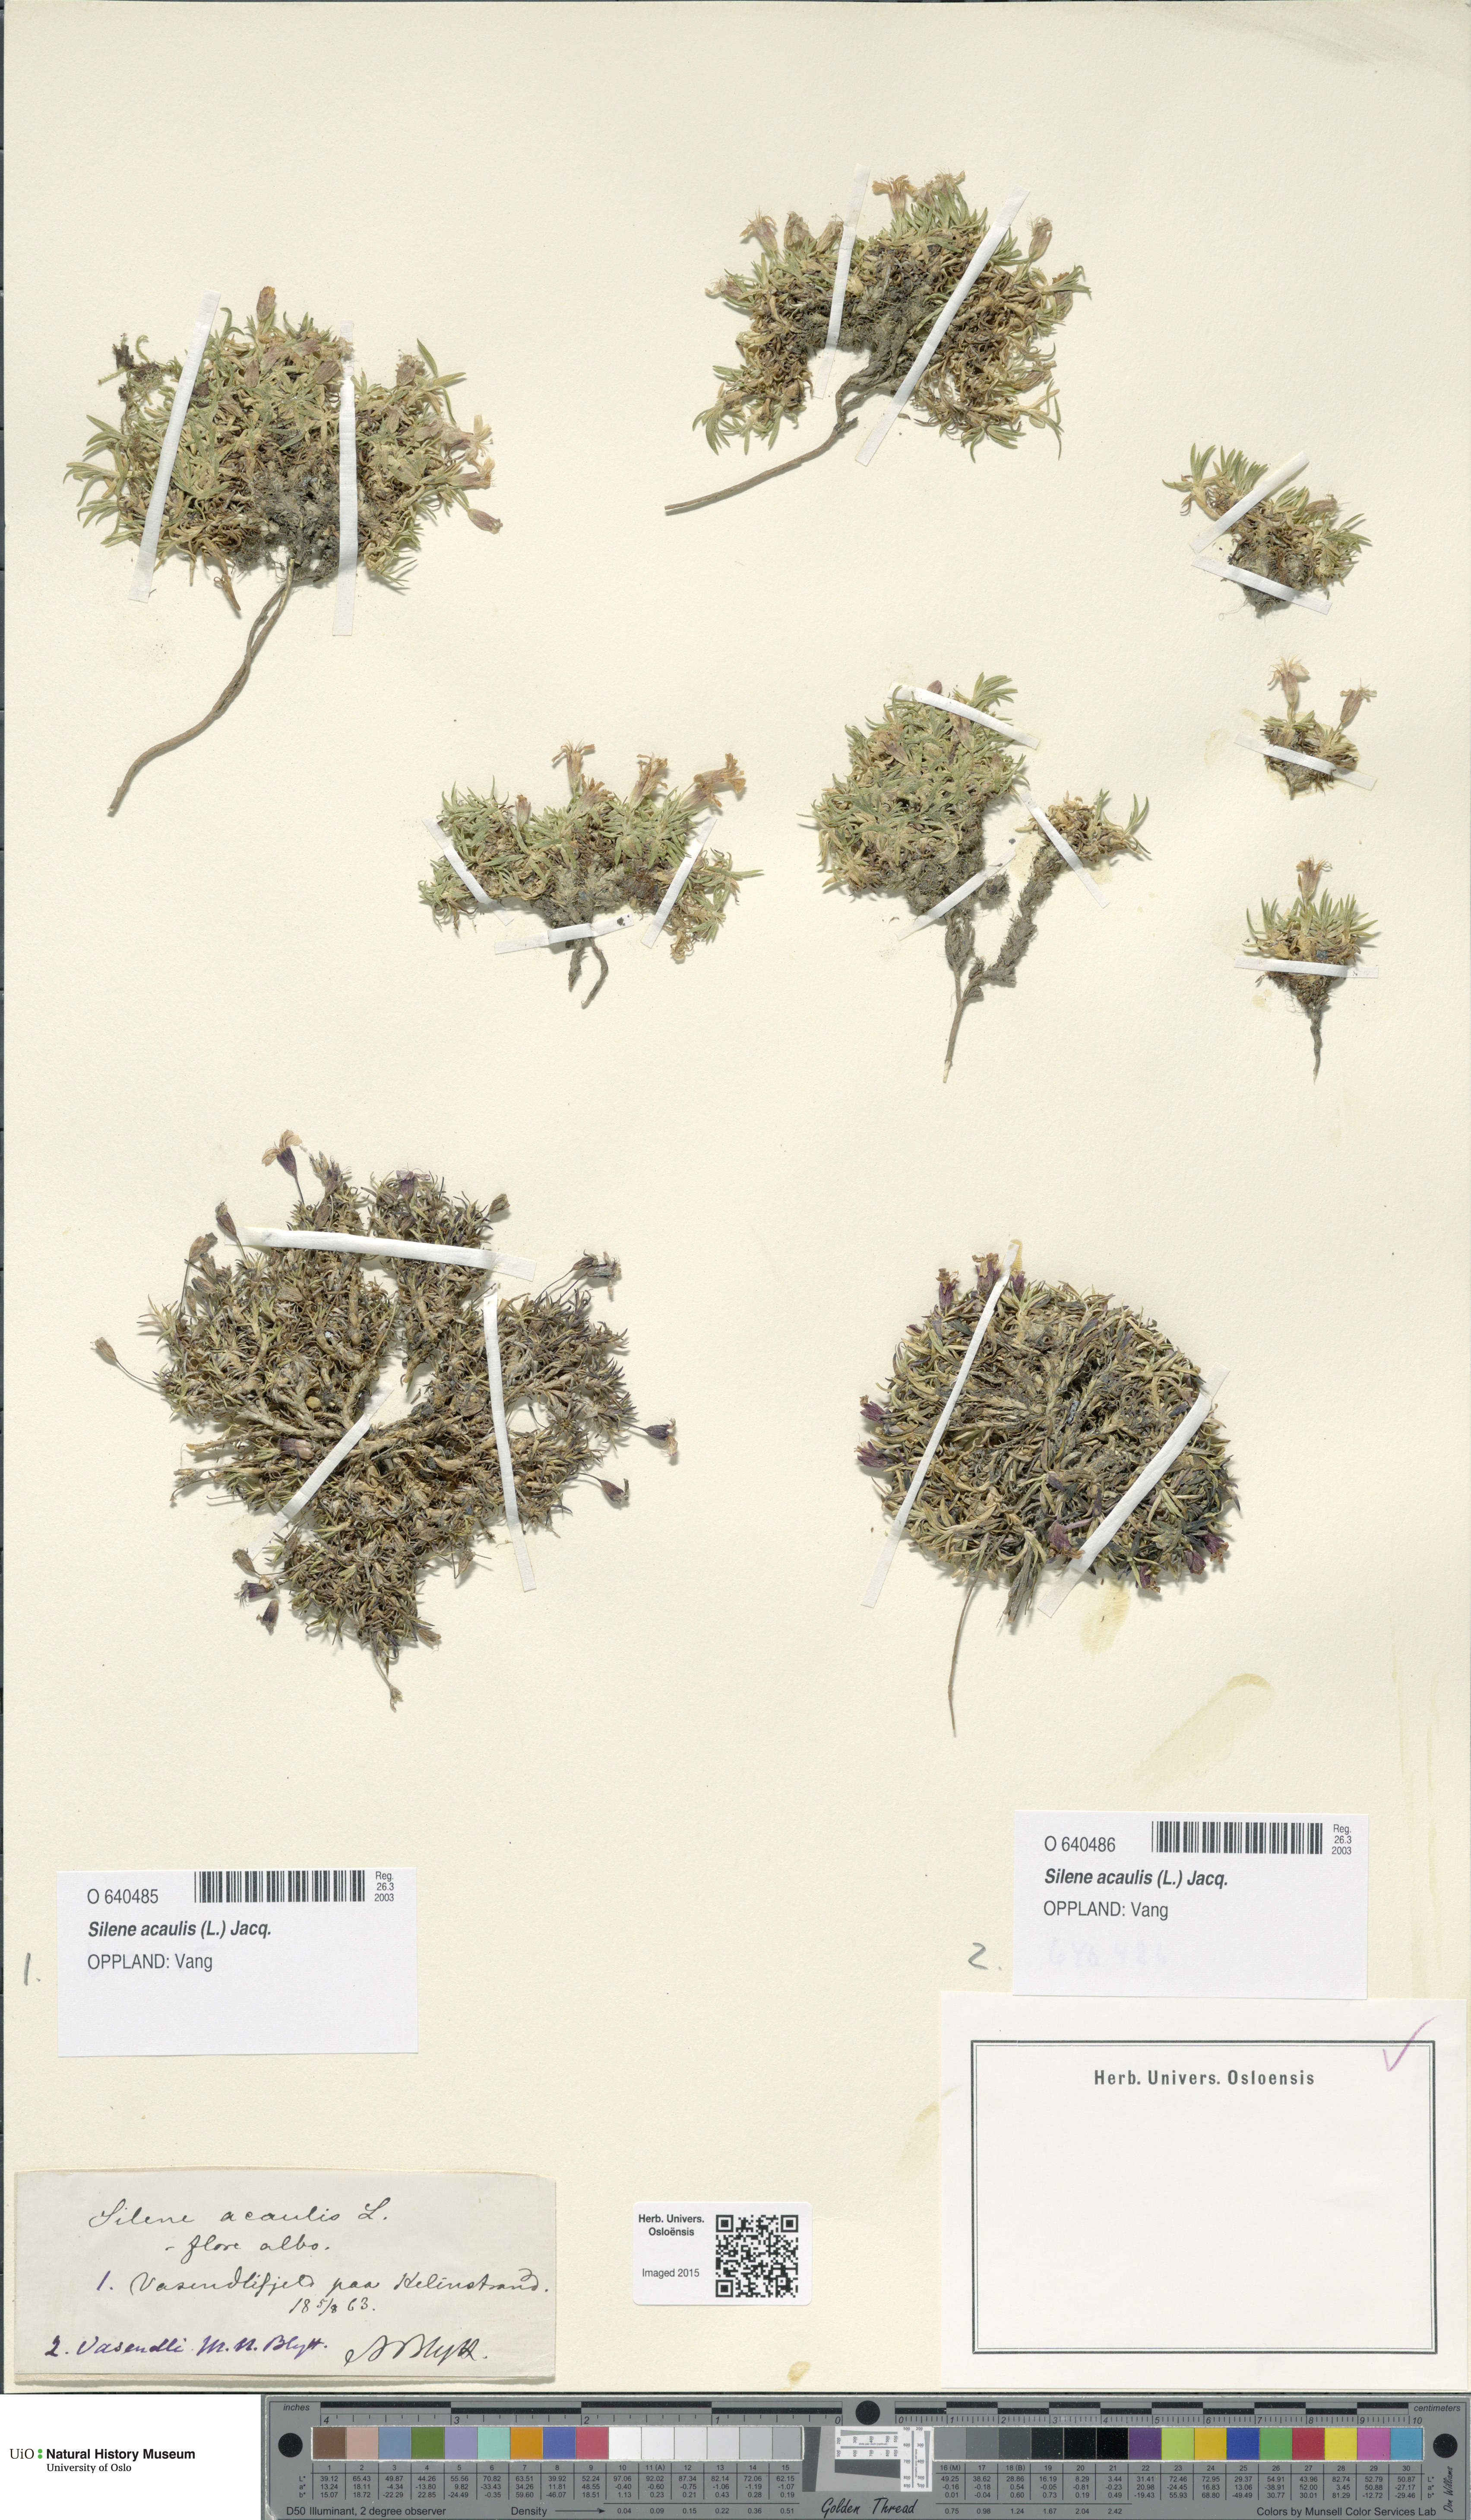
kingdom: Plantae
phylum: Tracheophyta
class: Magnoliopsida
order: Caryophyllales
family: Caryophyllaceae
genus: Silene
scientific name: Silene acaulis
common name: Moss campion
